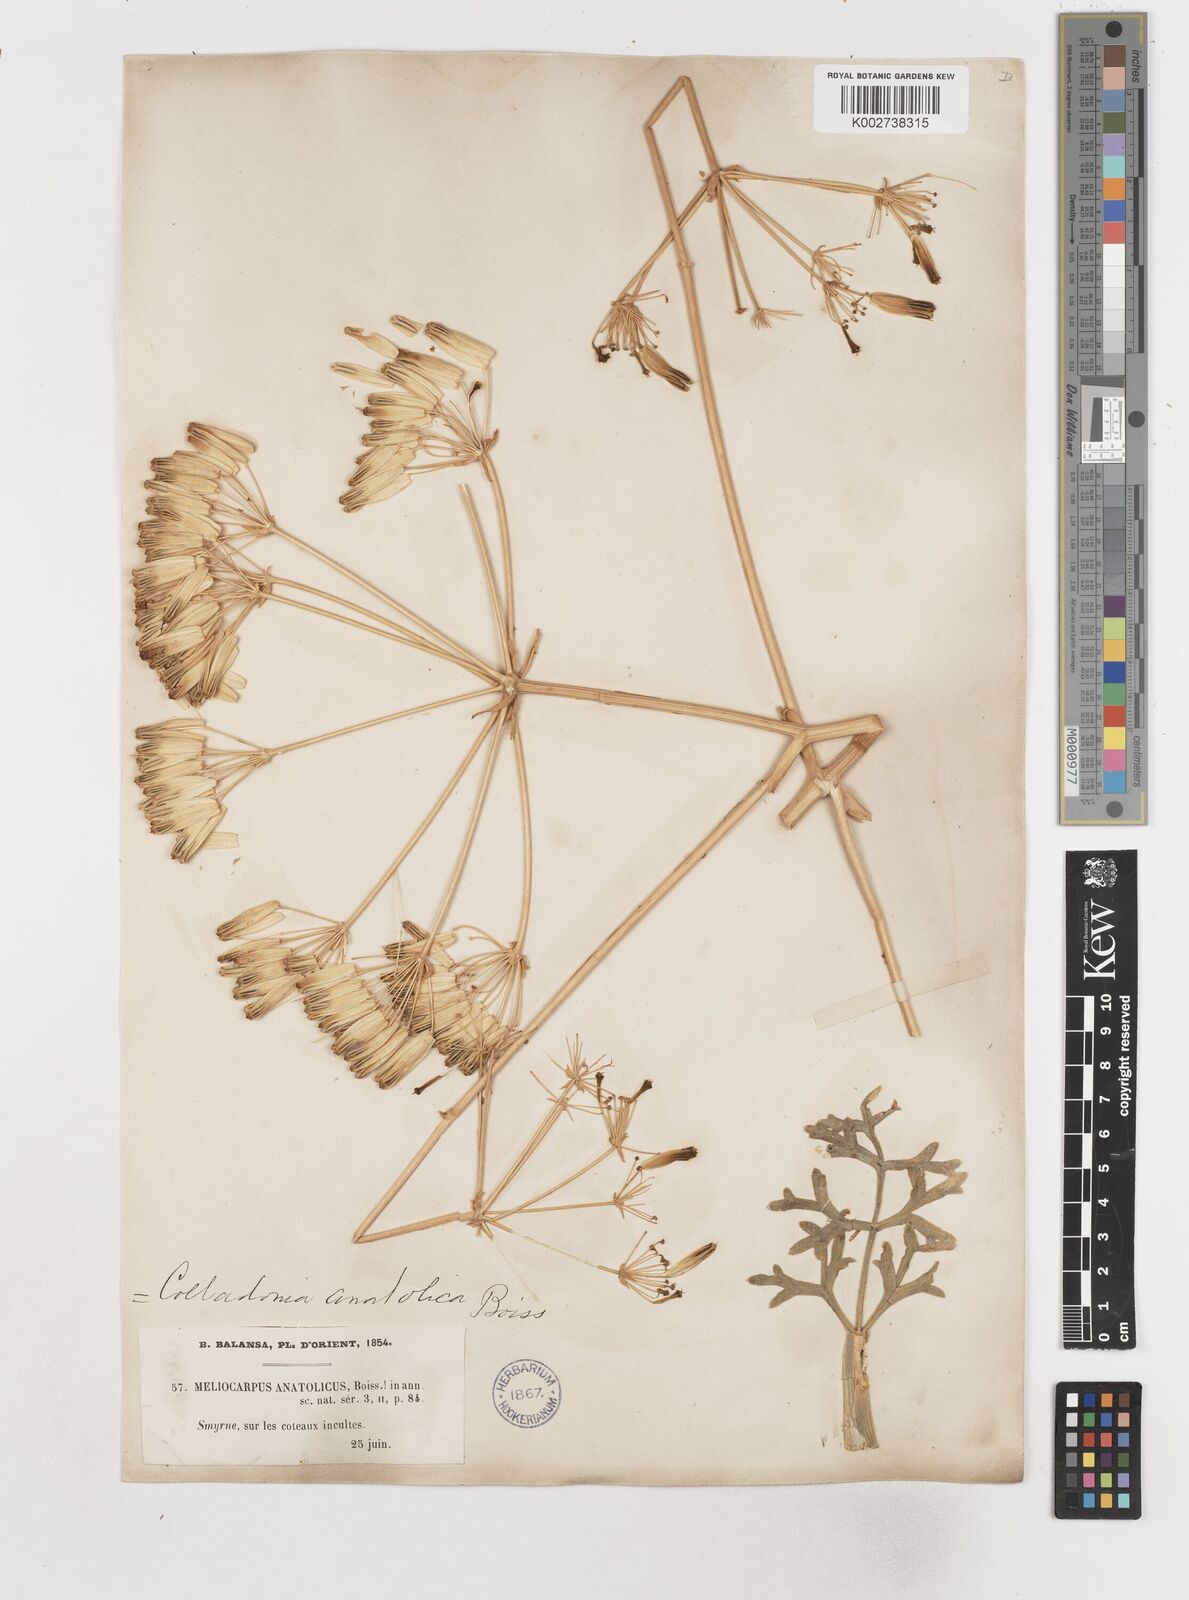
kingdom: Plantae
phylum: Tracheophyta
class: Magnoliopsida
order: Apiales
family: Apiaceae
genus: Heptaptera
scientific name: Heptaptera anatolica
